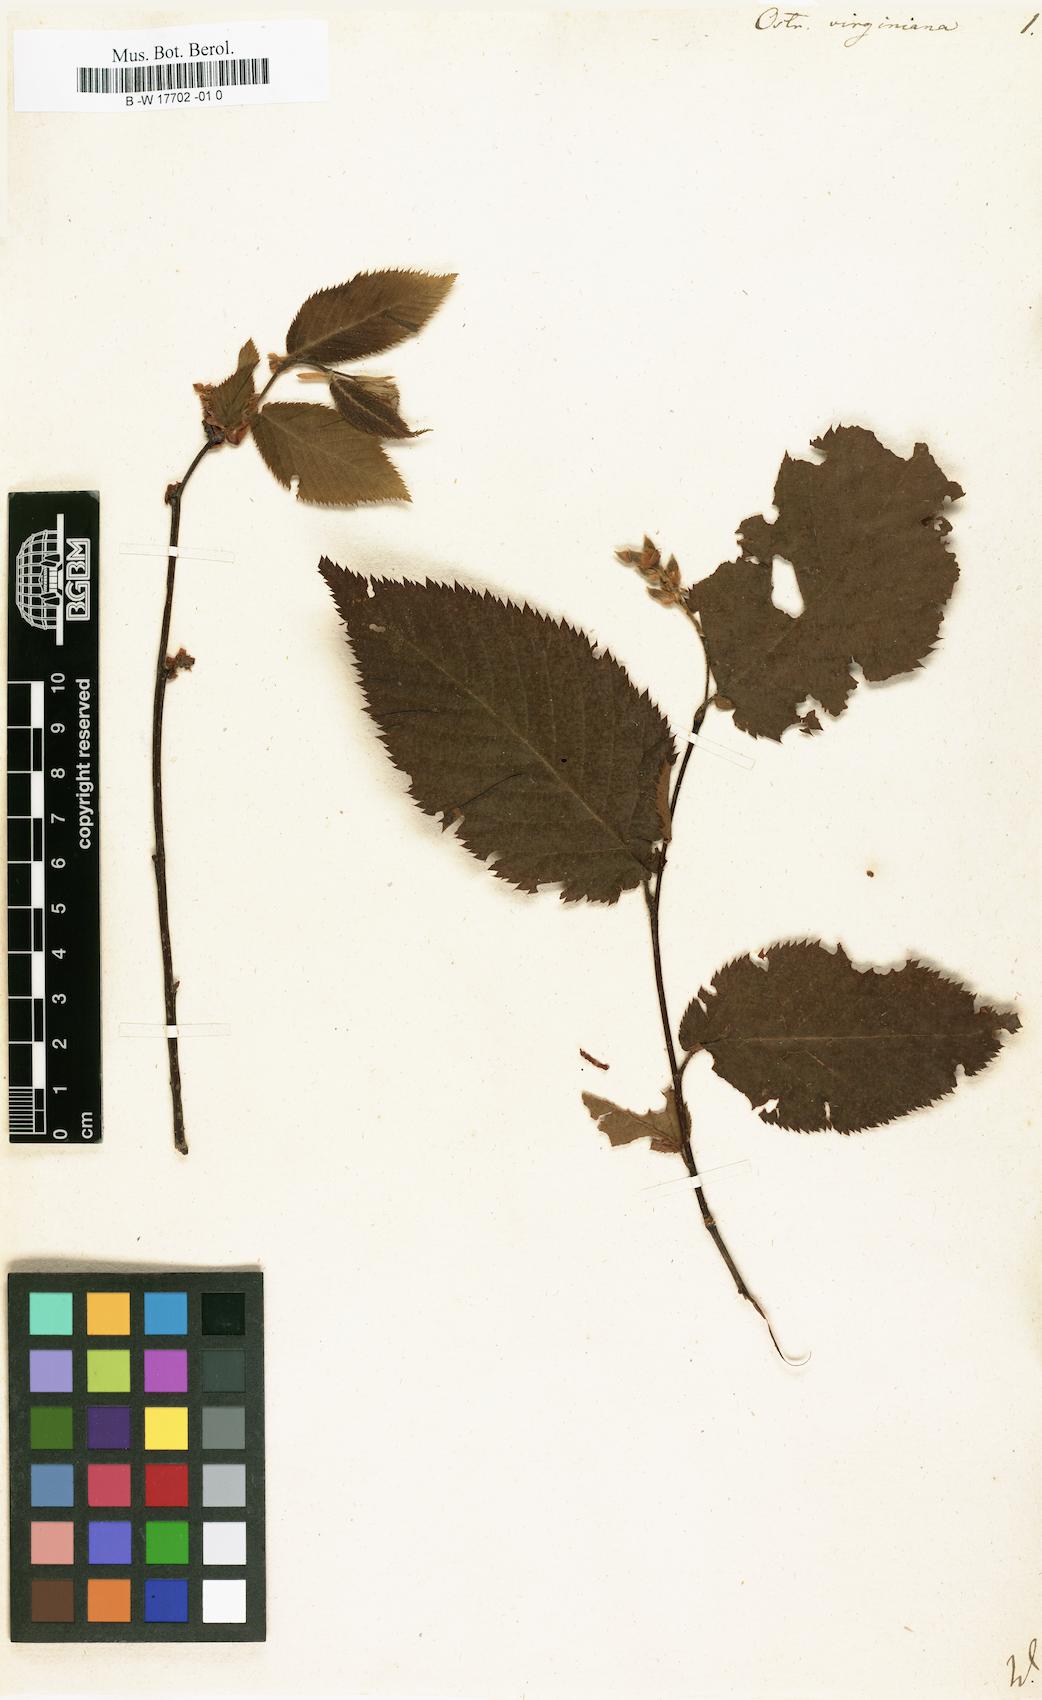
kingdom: Plantae
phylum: Tracheophyta
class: Magnoliopsida
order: Fagales
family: Betulaceae
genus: Ostrya
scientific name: Ostrya virginiana
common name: Ironwood
